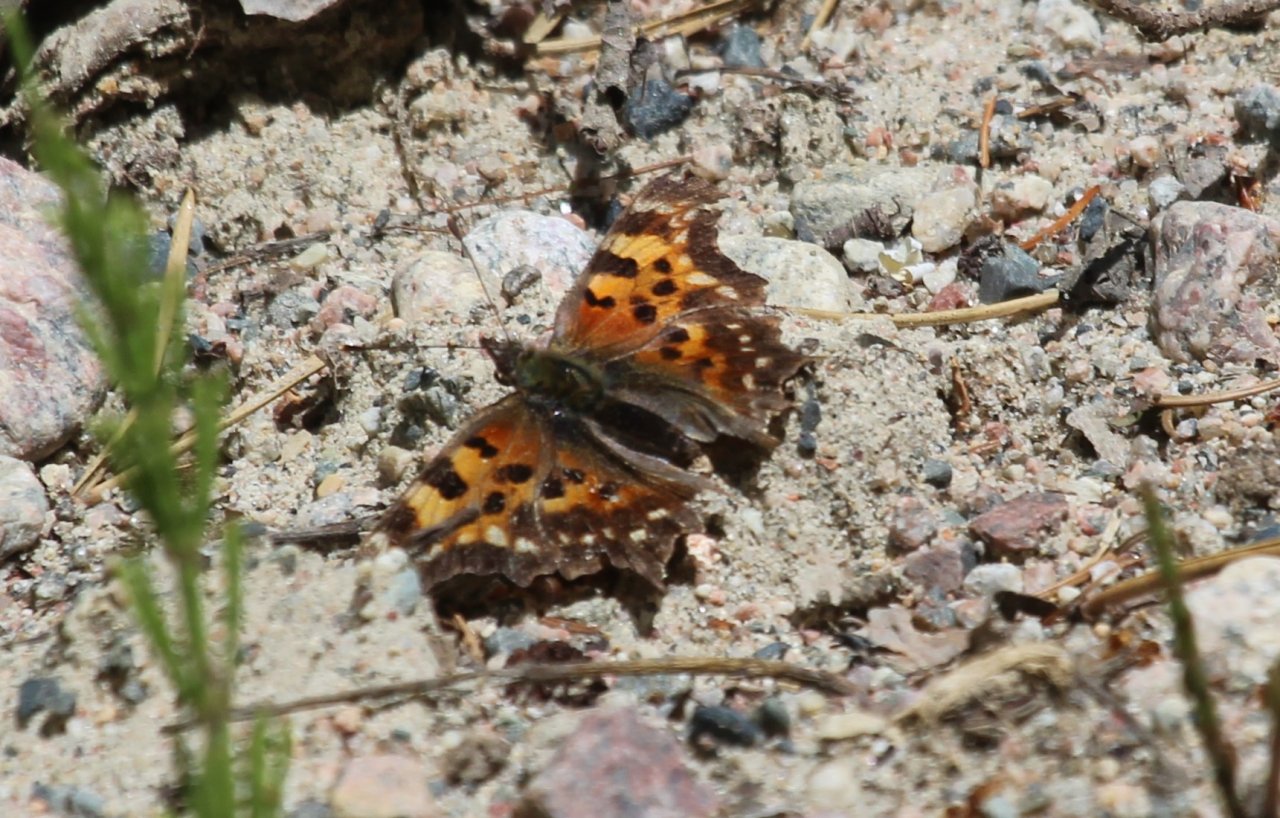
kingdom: Animalia
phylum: Arthropoda
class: Insecta
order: Lepidoptera
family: Nymphalidae
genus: Polygonia
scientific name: Polygonia faunus
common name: Green Comma
